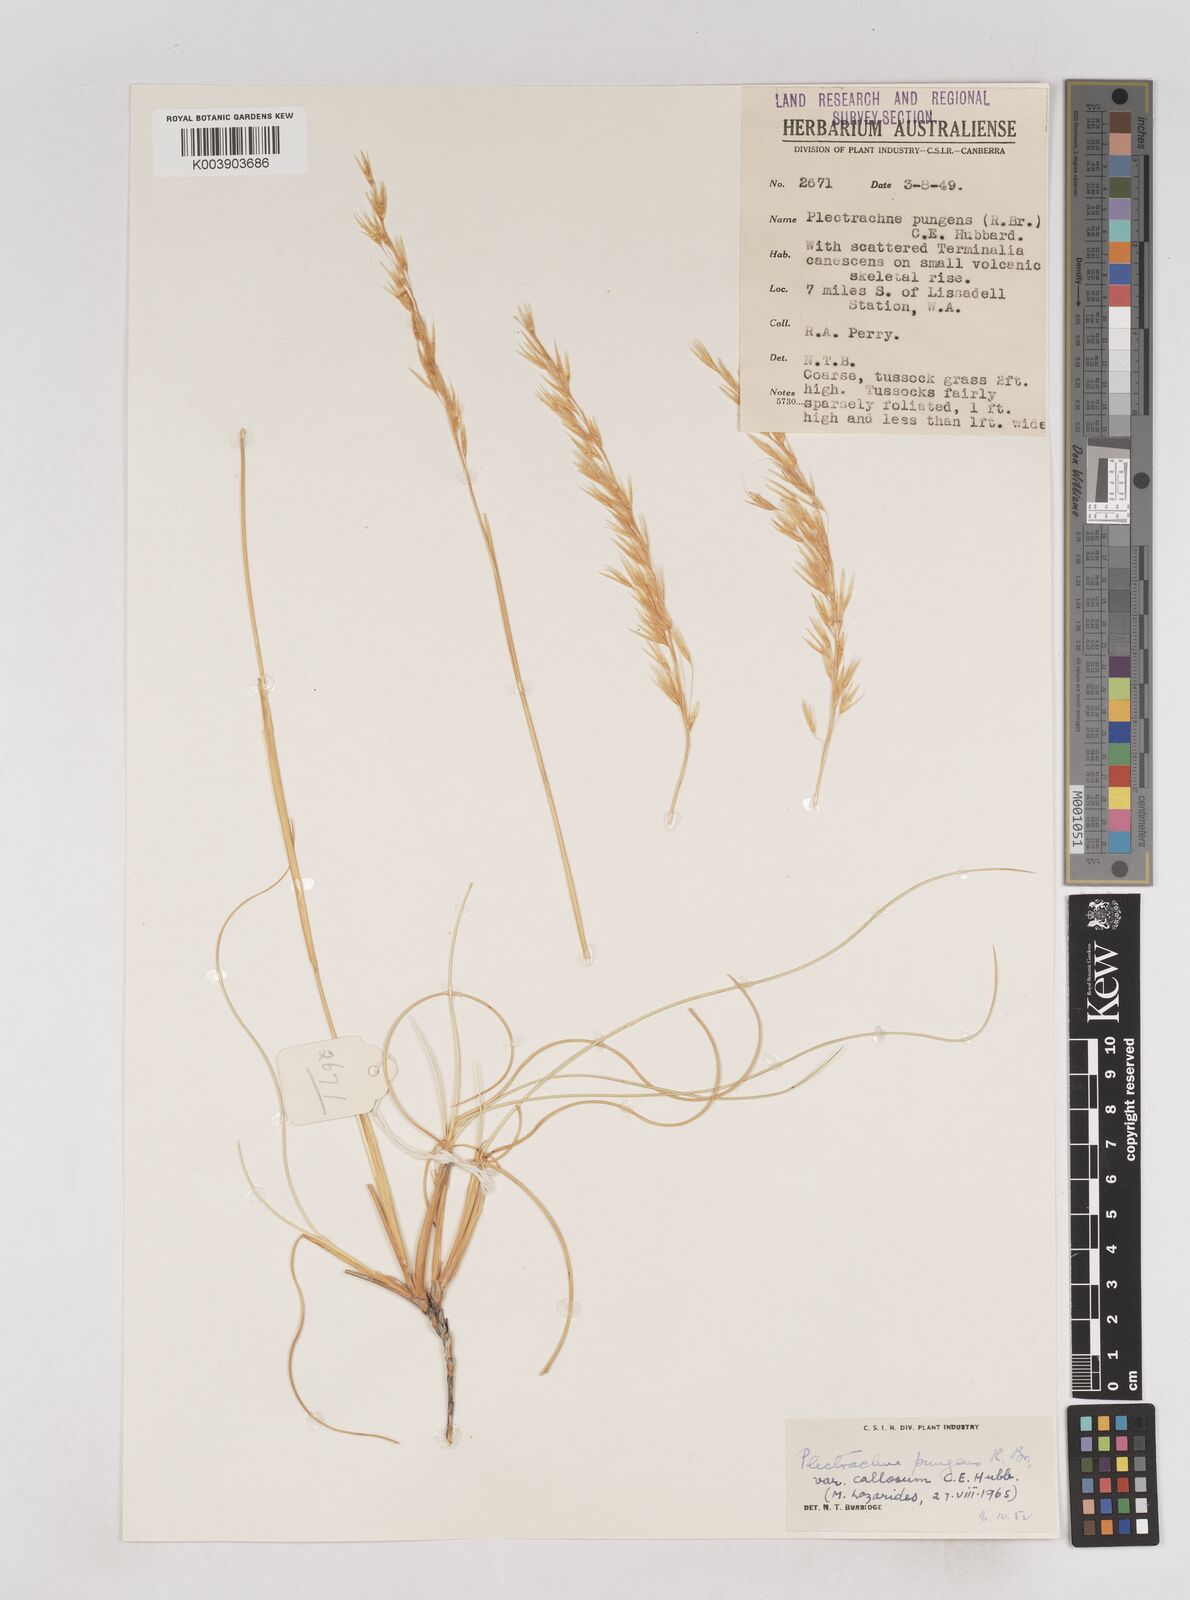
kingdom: Plantae
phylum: Tracheophyta
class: Liliopsida
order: Poales
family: Poaceae
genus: Triodia
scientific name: Triodia bitextura
